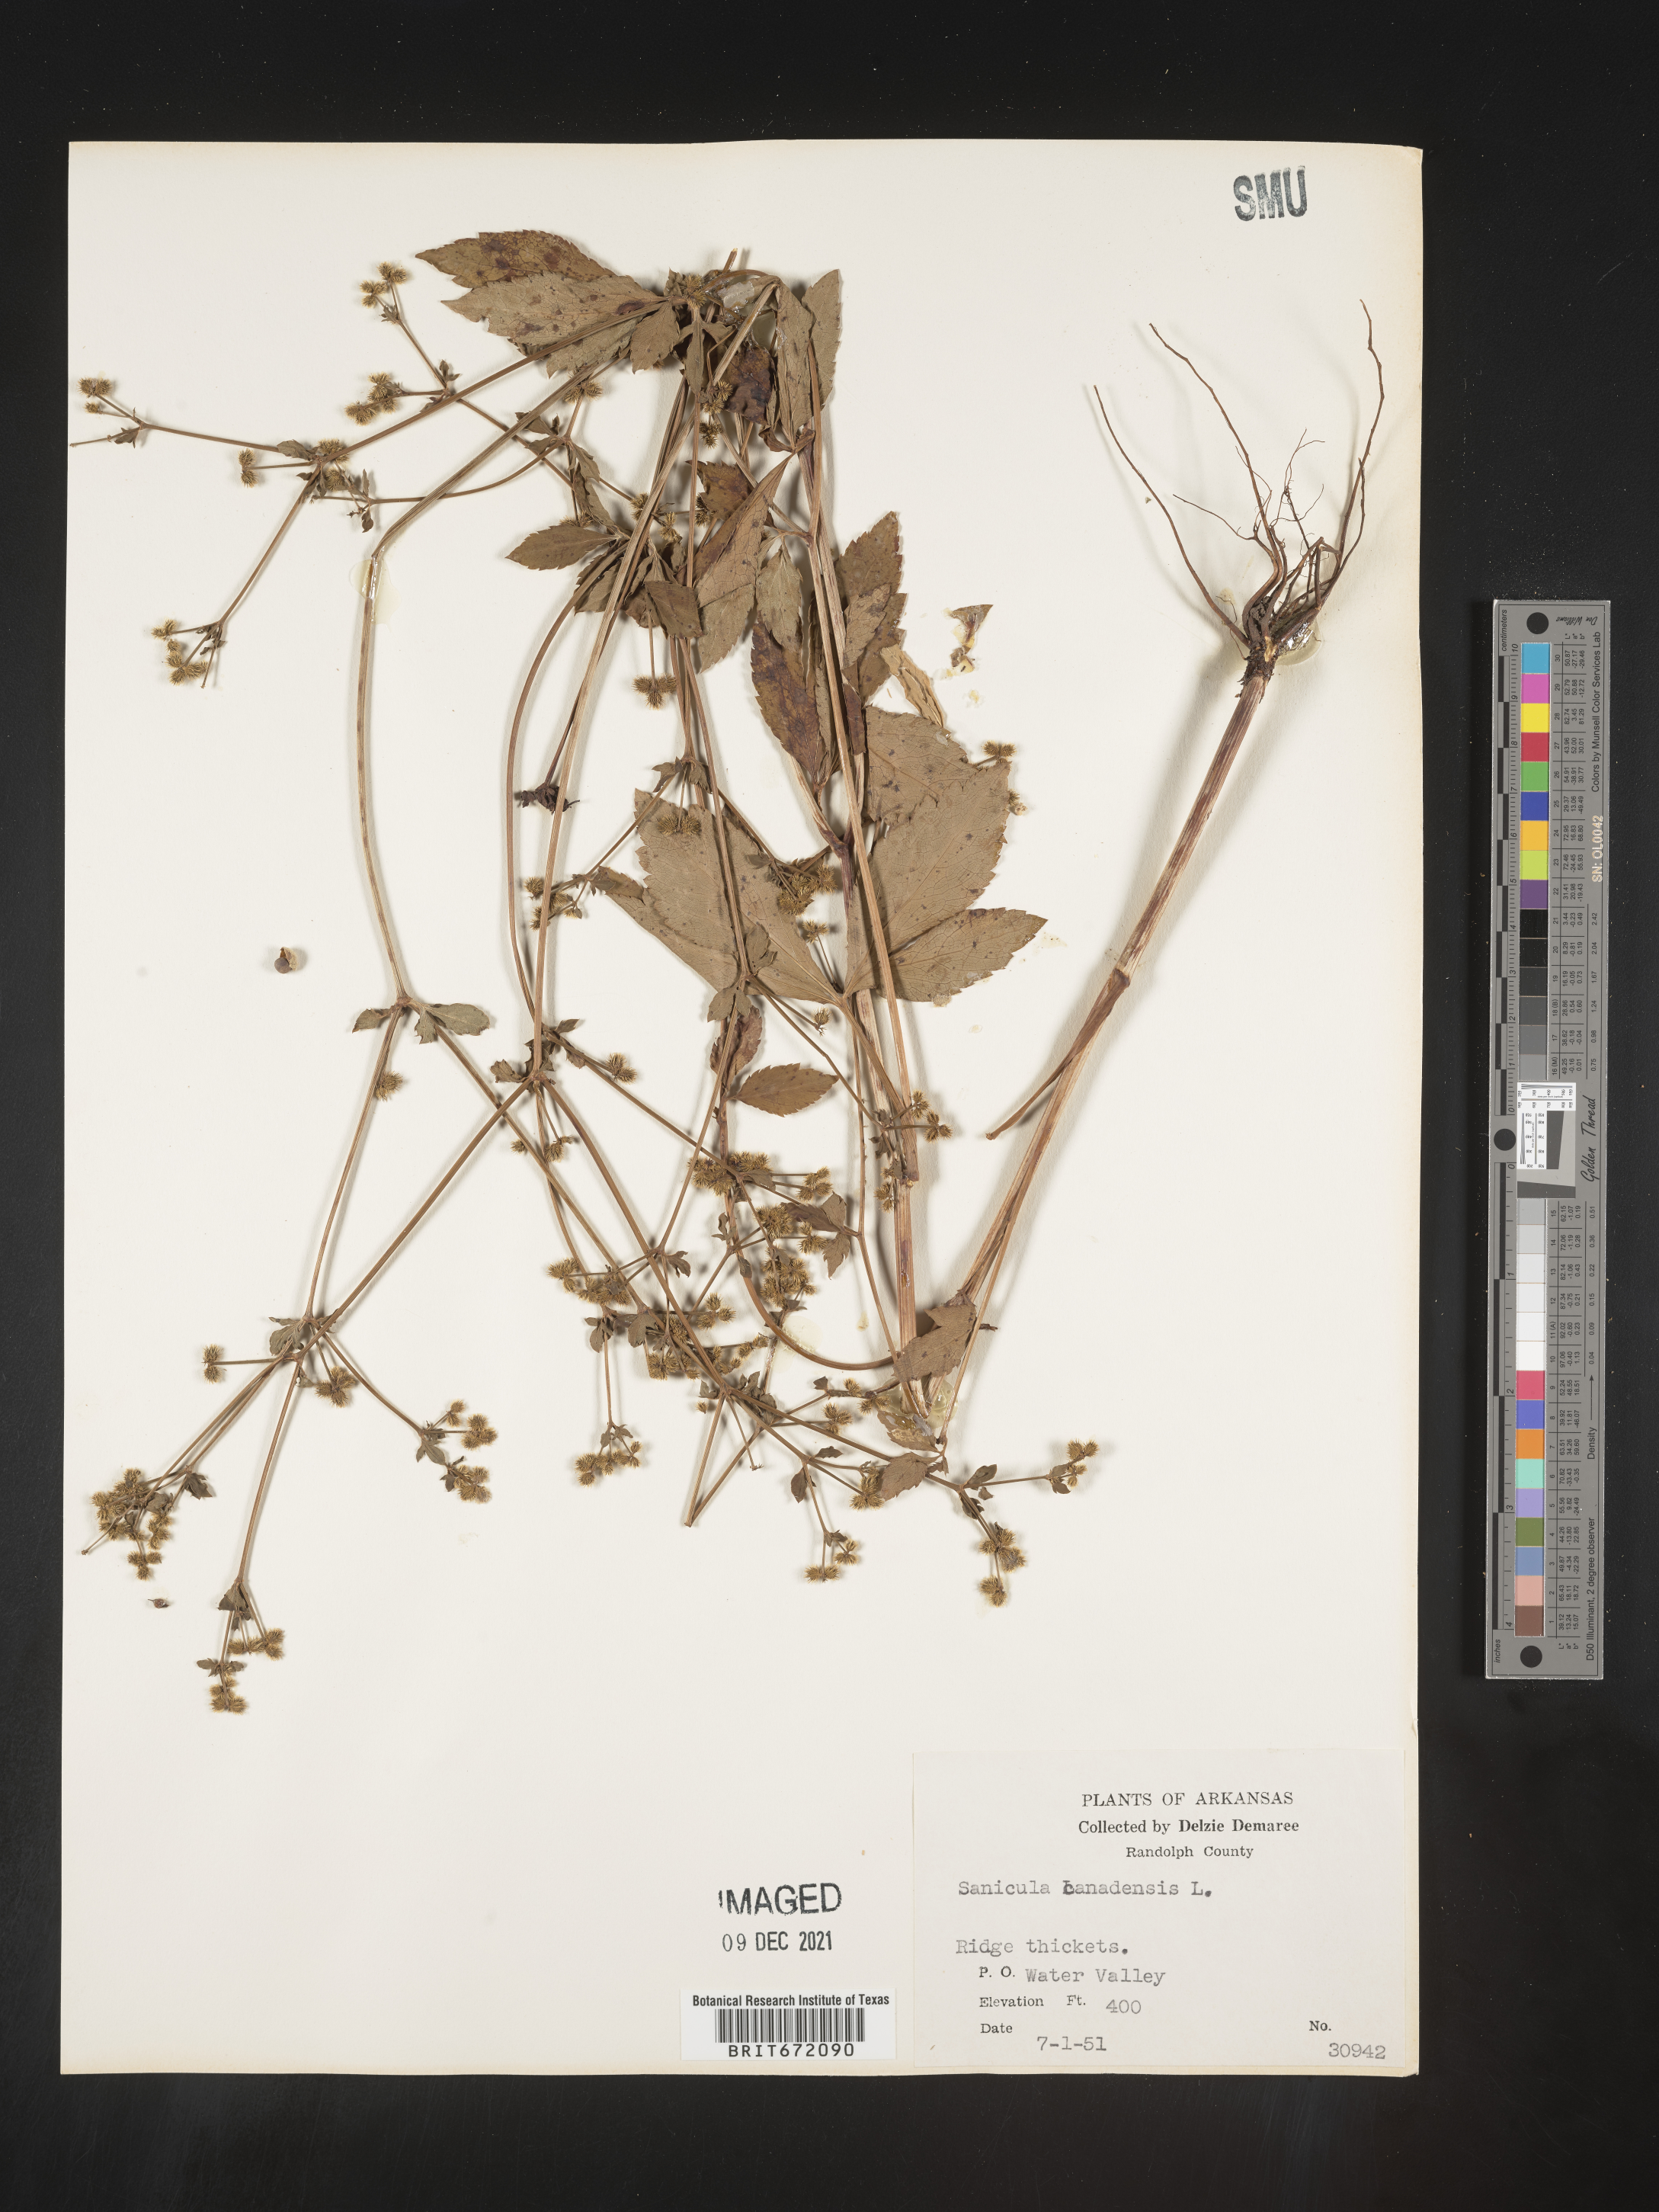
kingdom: Plantae
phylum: Tracheophyta
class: Magnoliopsida
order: Apiales
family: Apiaceae
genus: Sanicula
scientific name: Sanicula canadensis
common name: Canada sanicle
